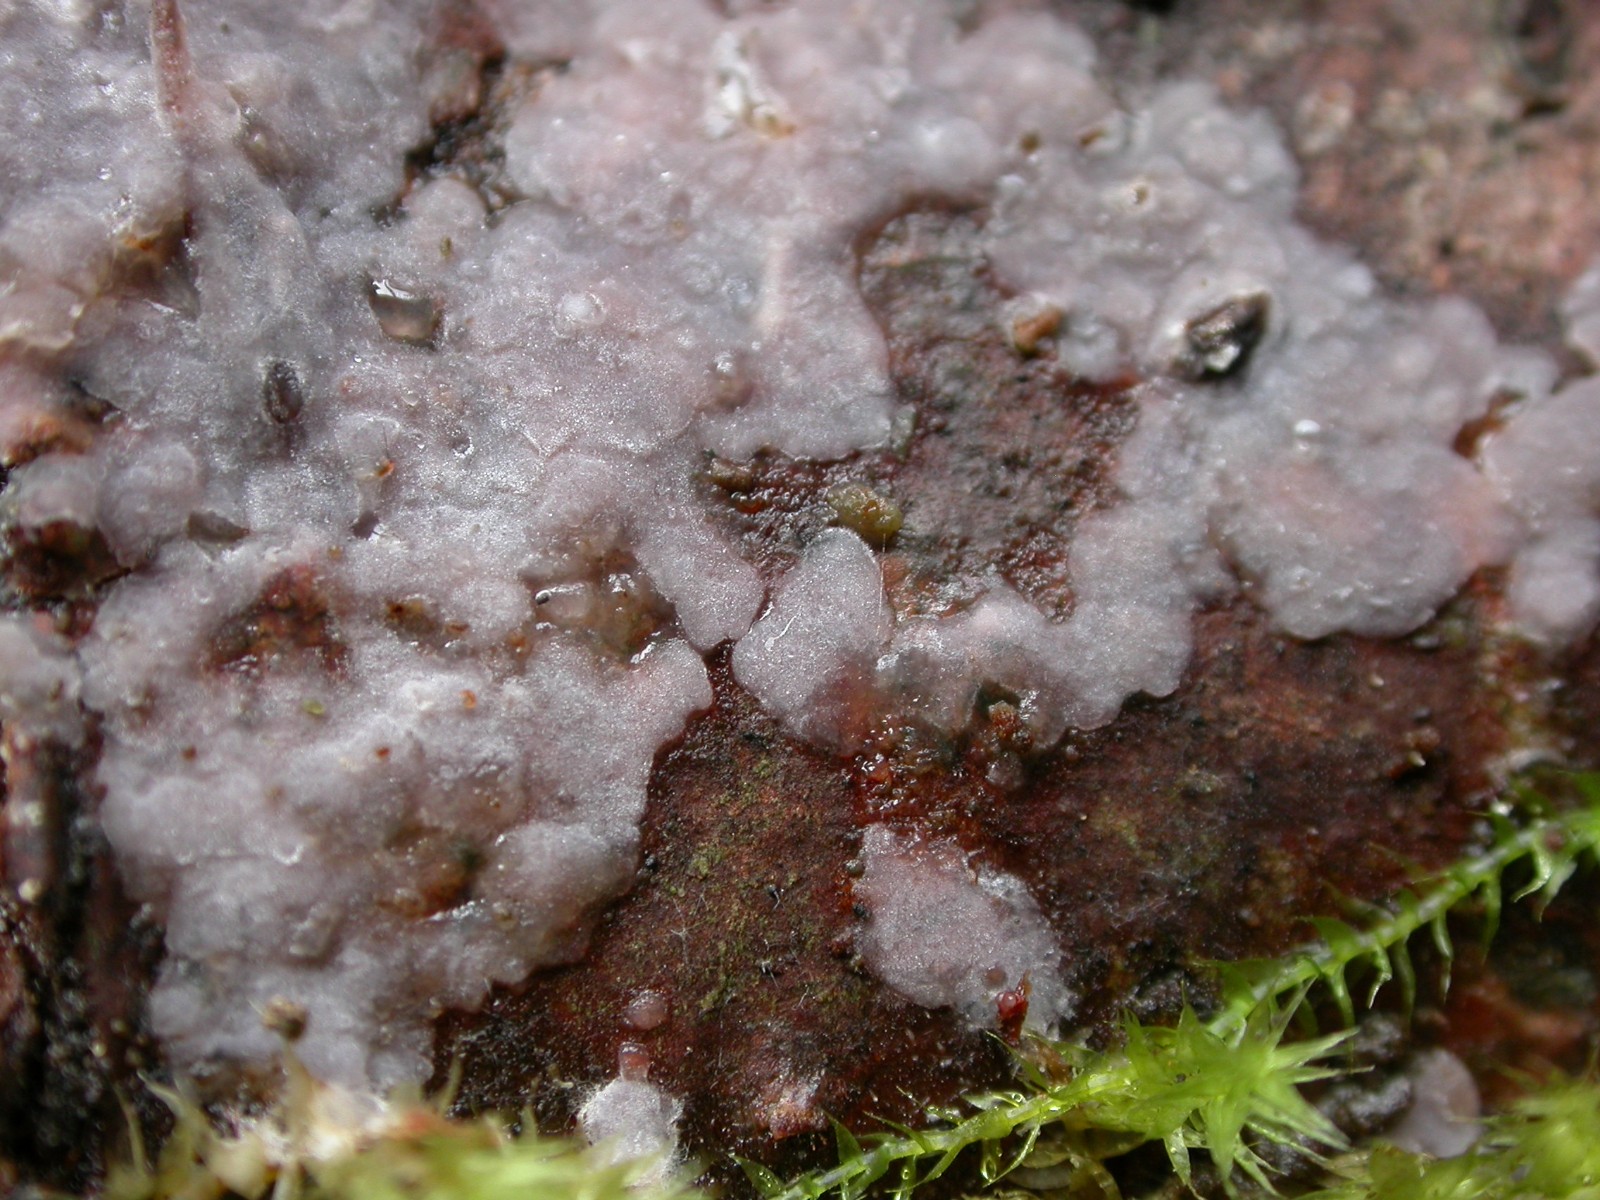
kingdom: Fungi
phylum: Basidiomycota
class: Agaricomycetes
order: Sebacinales
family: Sebacinaceae
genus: Sebacina
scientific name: Sebacina grisea
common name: blågrå bævrehinde
